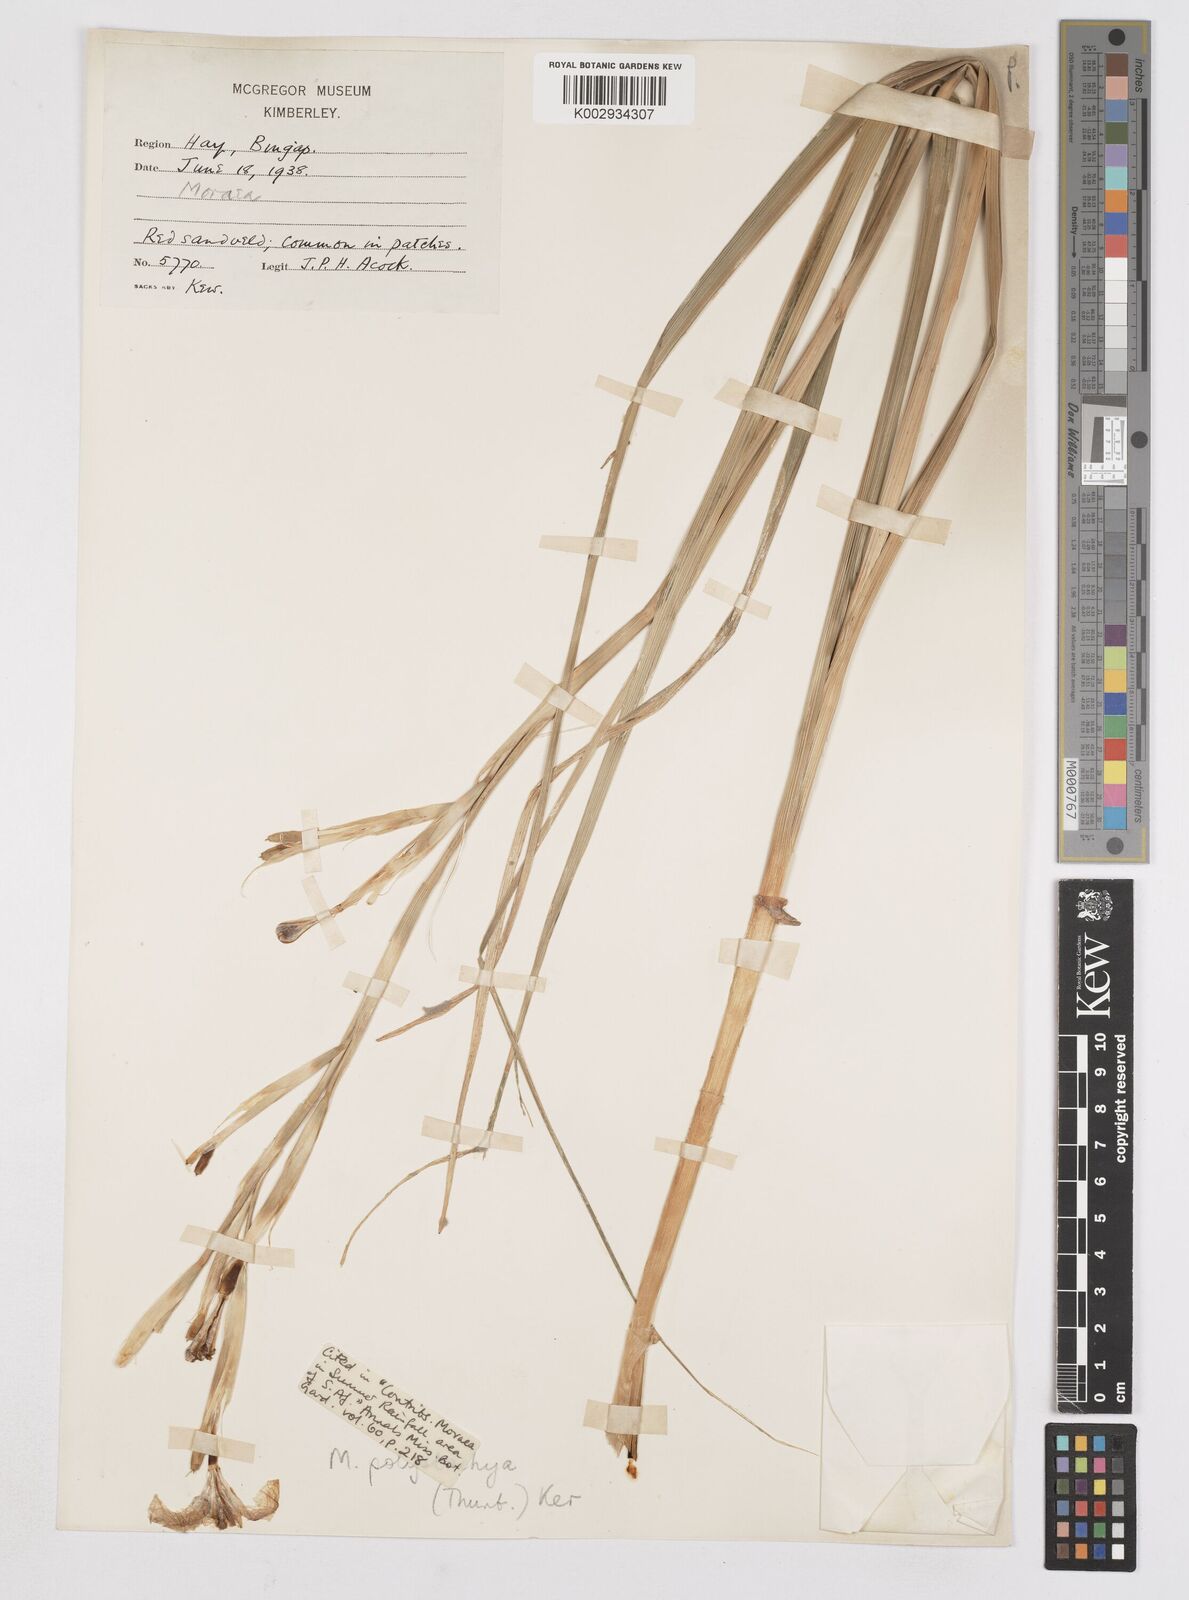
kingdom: Plantae
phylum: Tracheophyta
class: Liliopsida
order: Asparagales
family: Iridaceae
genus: Moraea
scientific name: Moraea polystachya
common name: Blue-tulip
